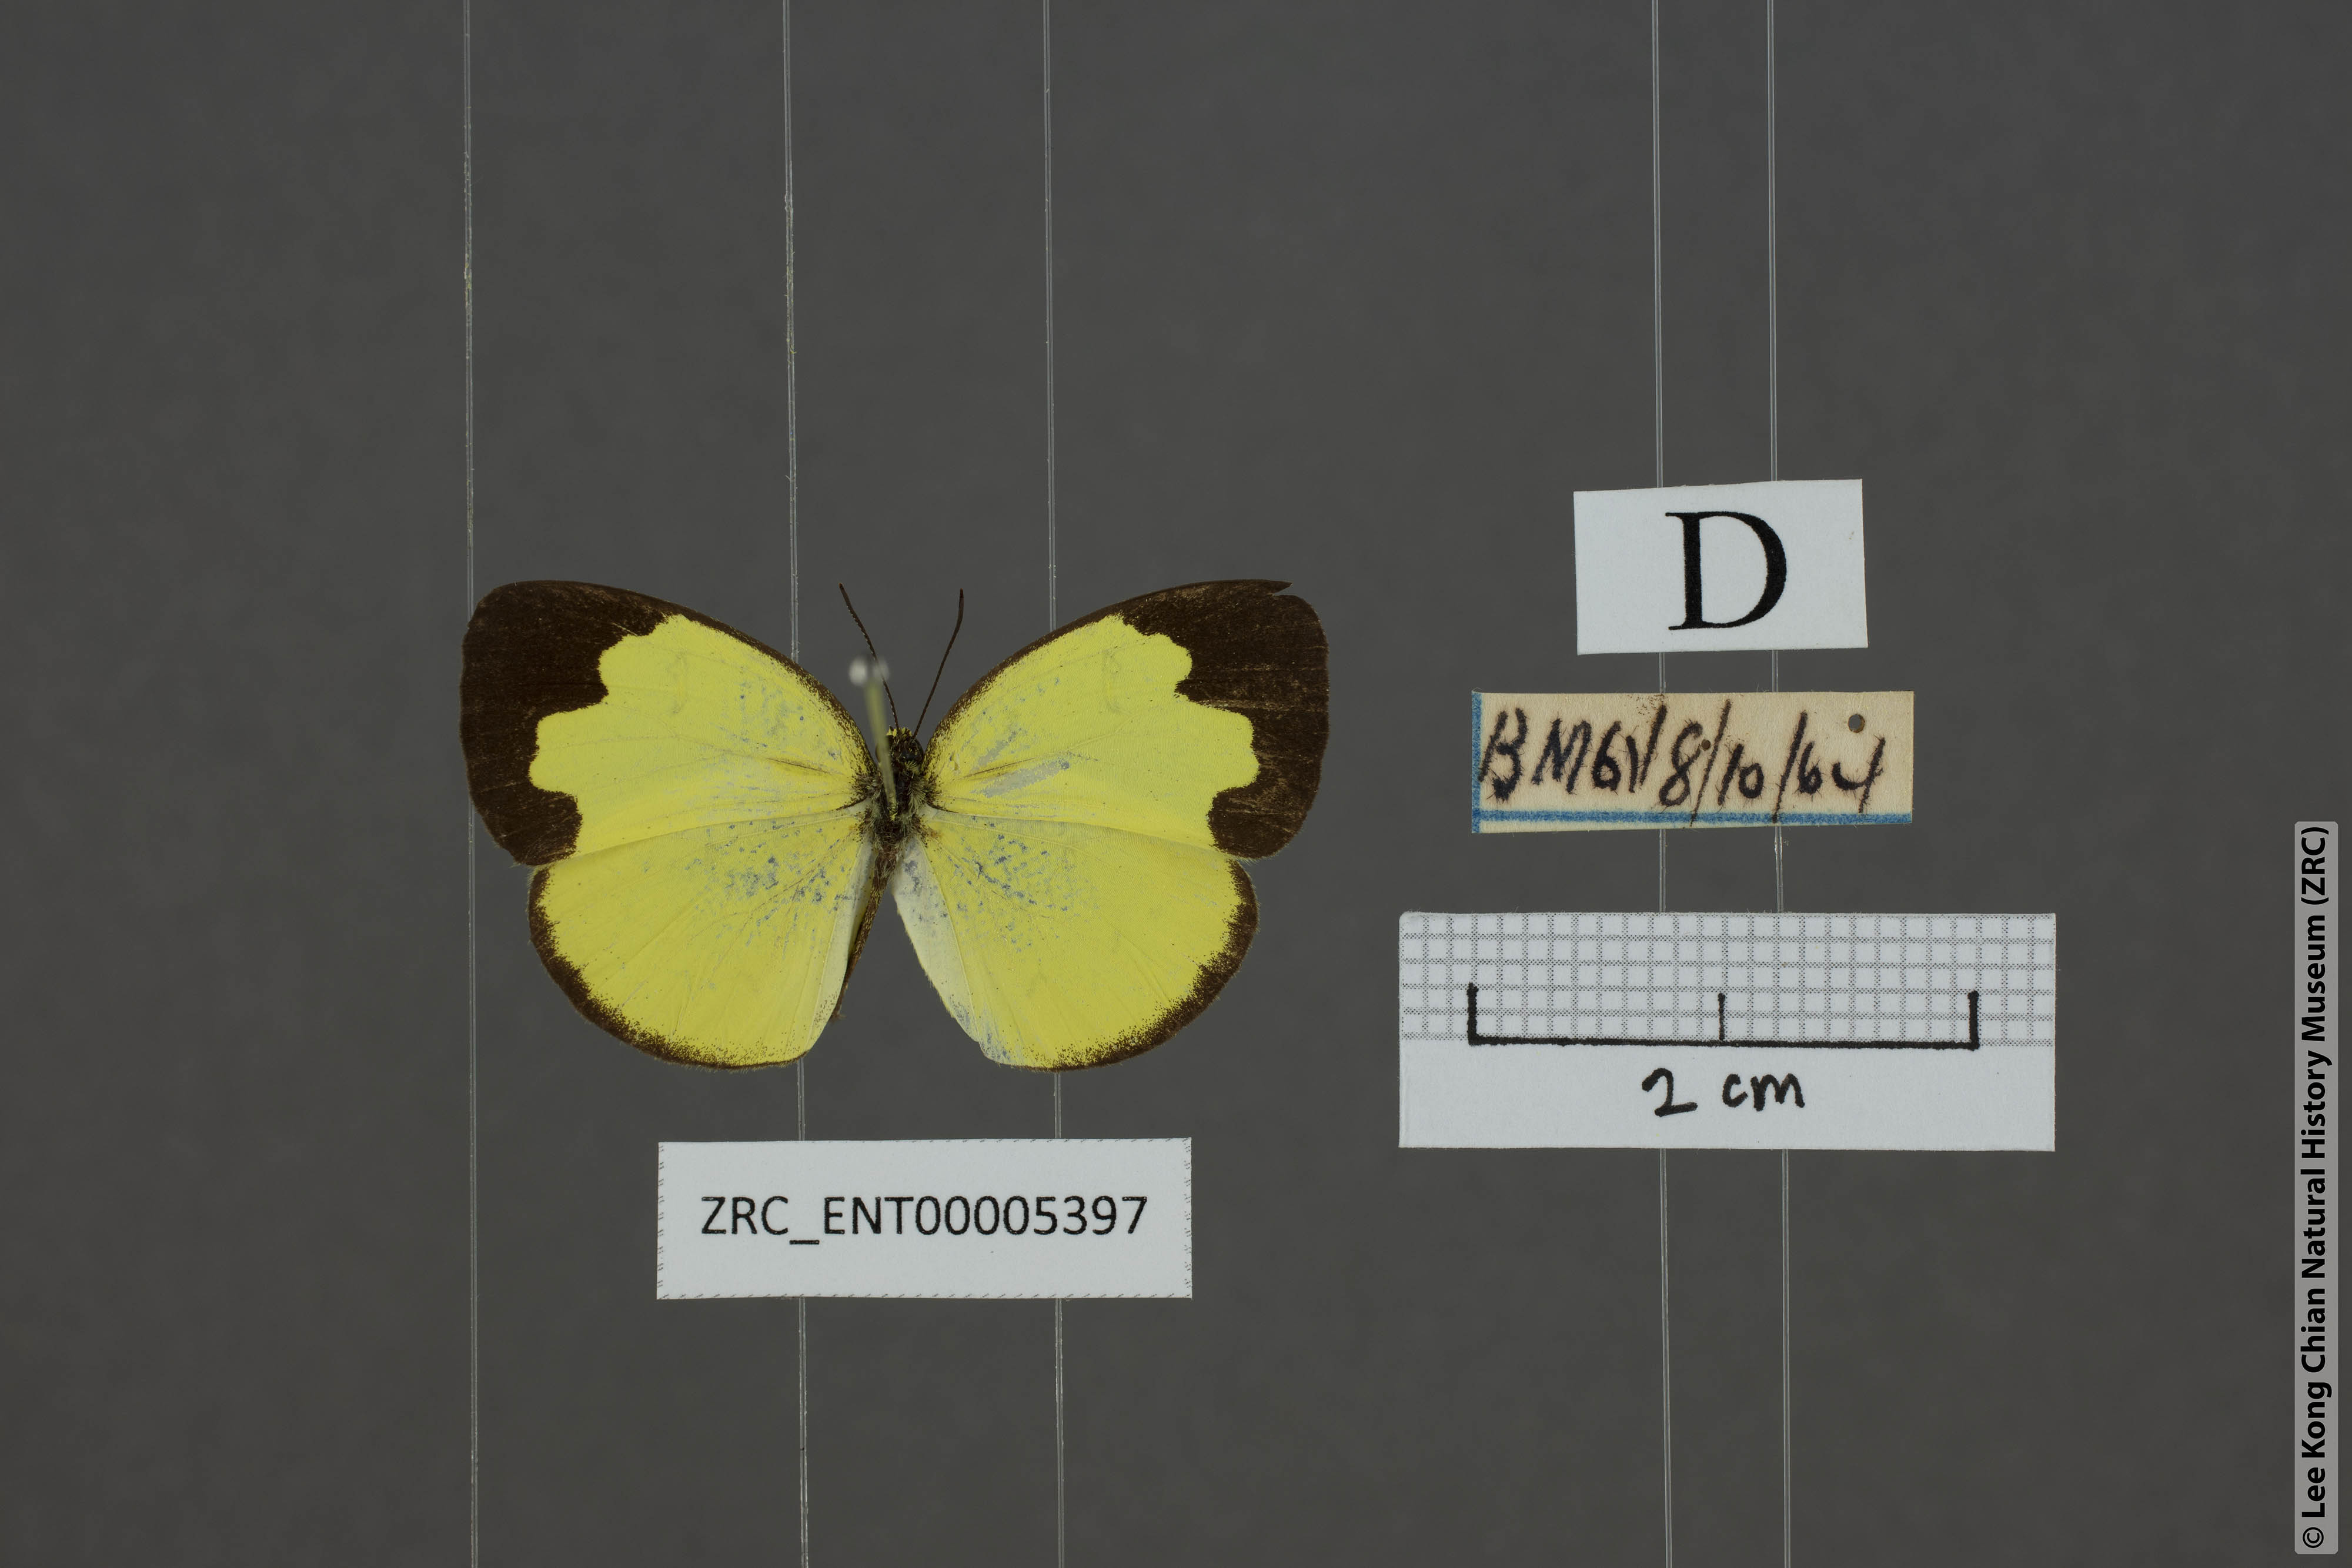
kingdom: Animalia
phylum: Arthropoda
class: Insecta
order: Lepidoptera
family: Pieridae
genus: Eurema
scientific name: Eurema ada
